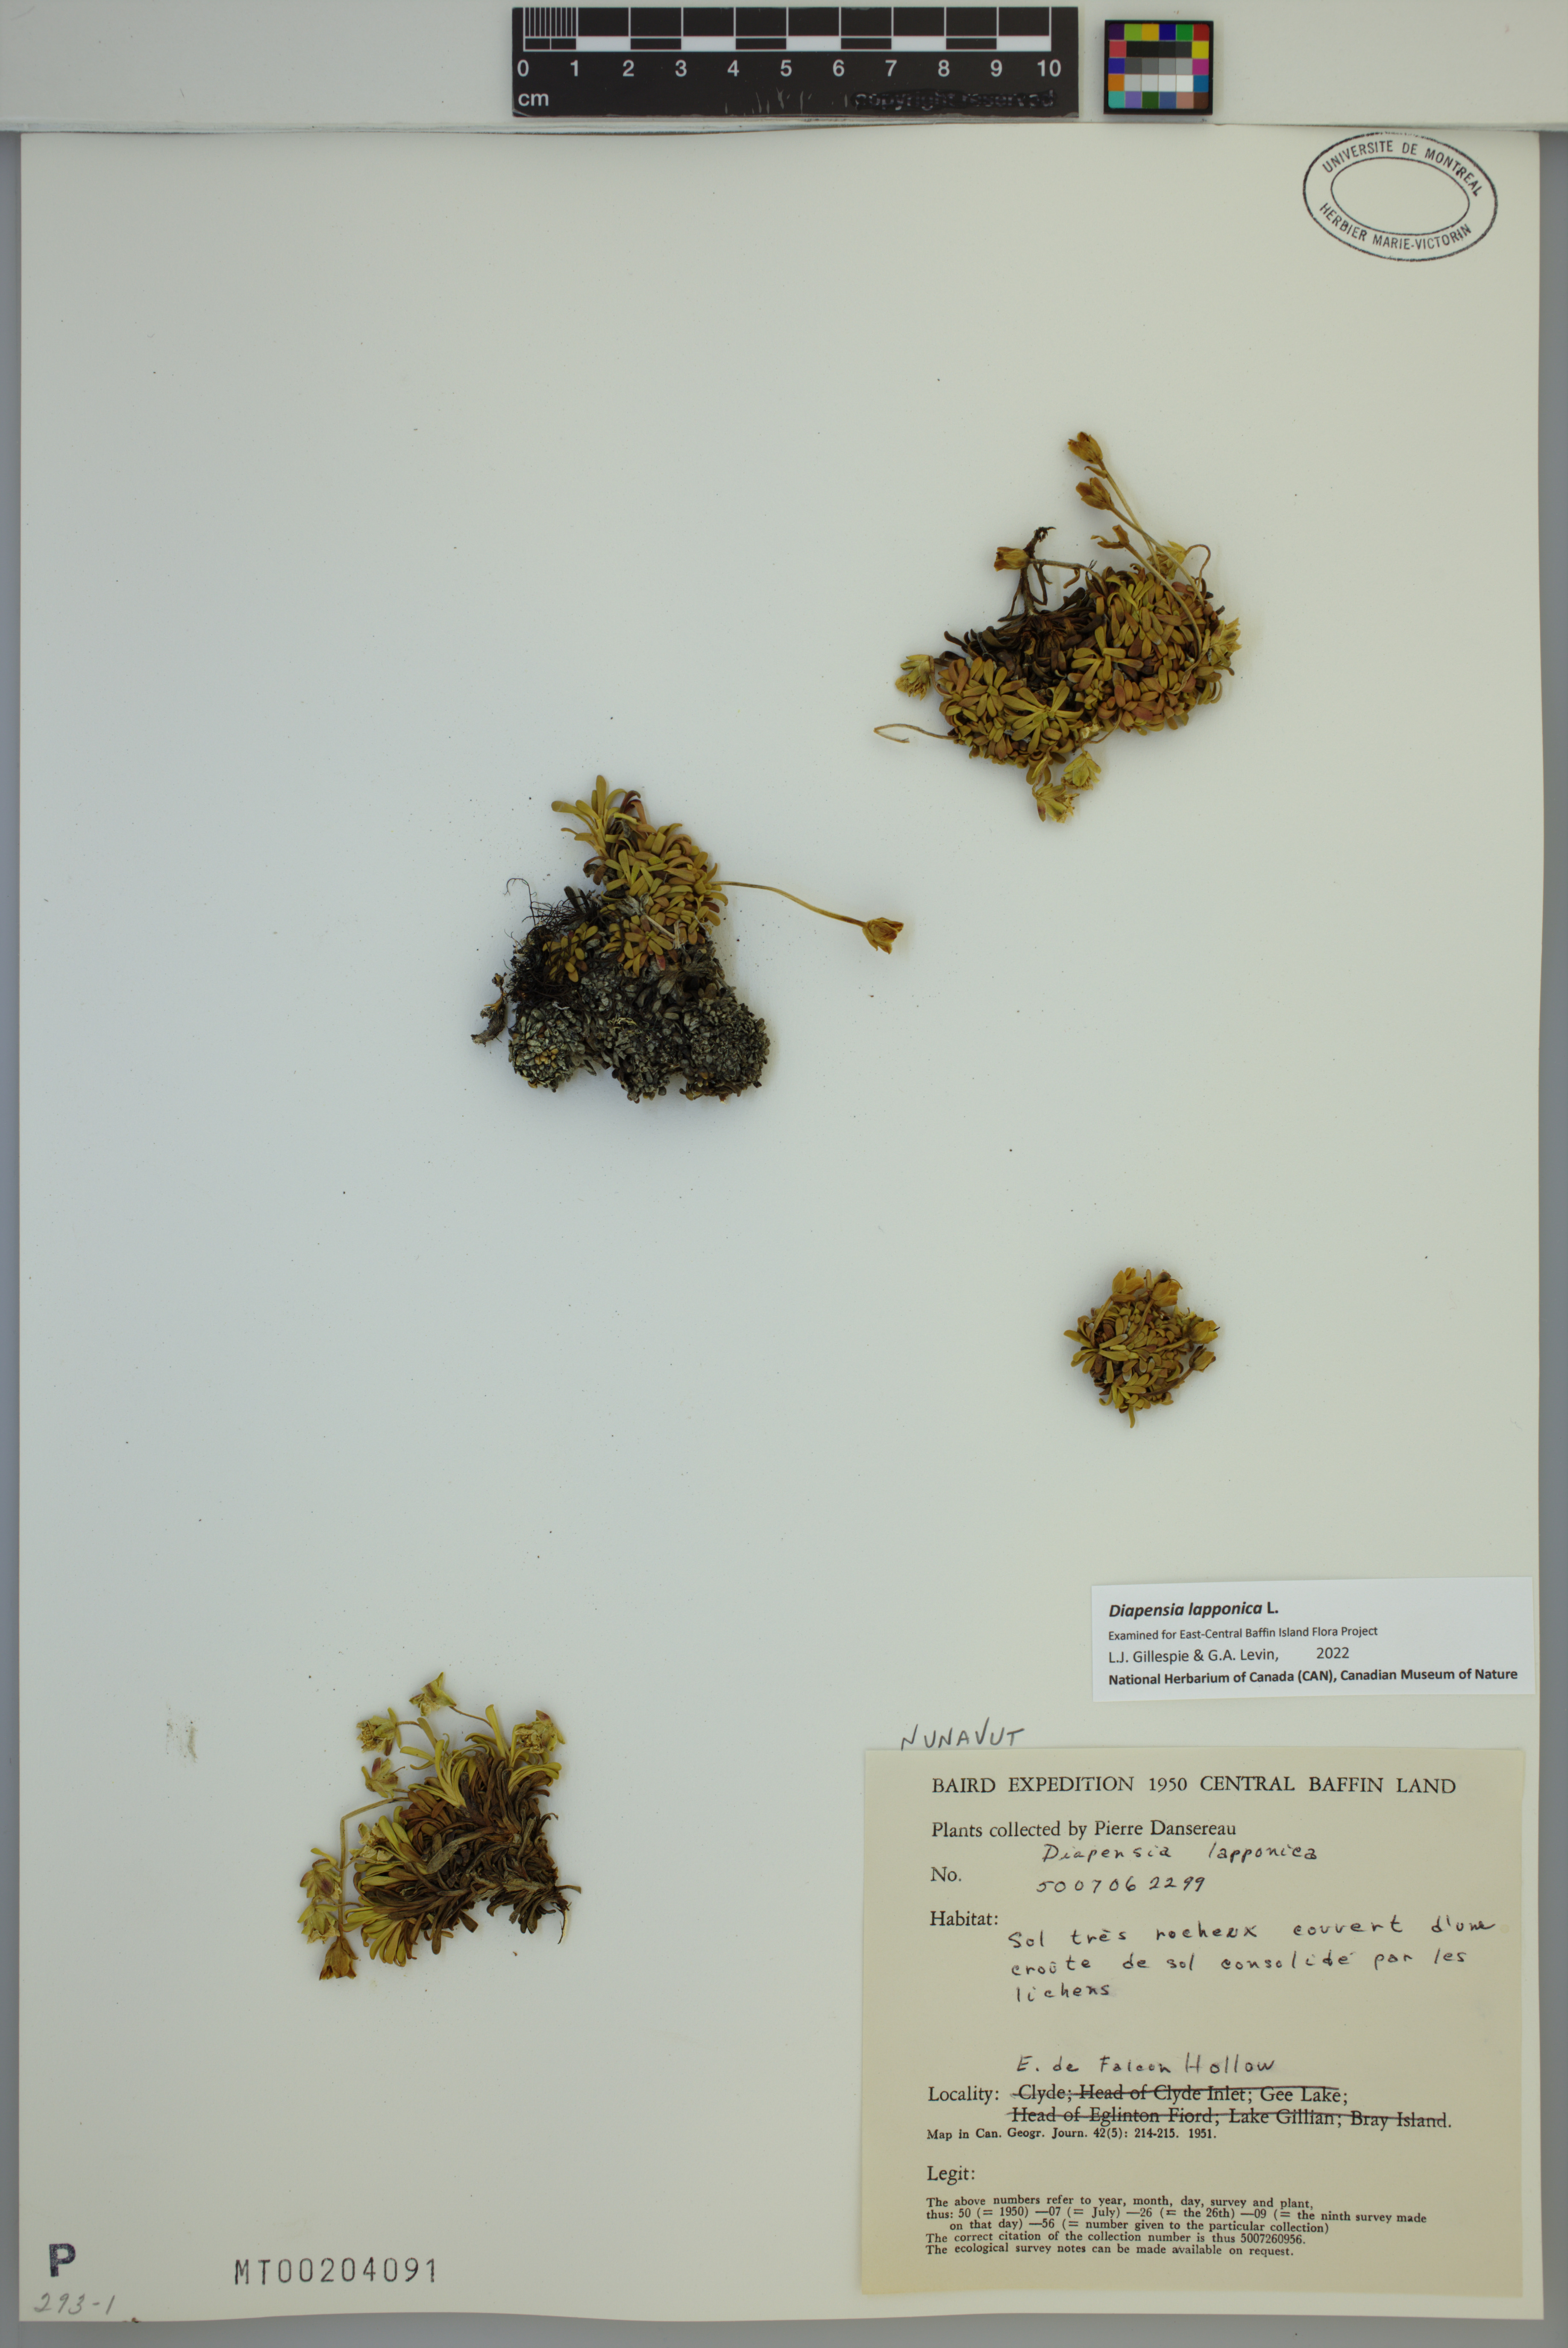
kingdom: Plantae
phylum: Tracheophyta
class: Magnoliopsida
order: Ericales
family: Diapensiaceae
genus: Diapensia
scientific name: Diapensia lapponica
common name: Diapensia
